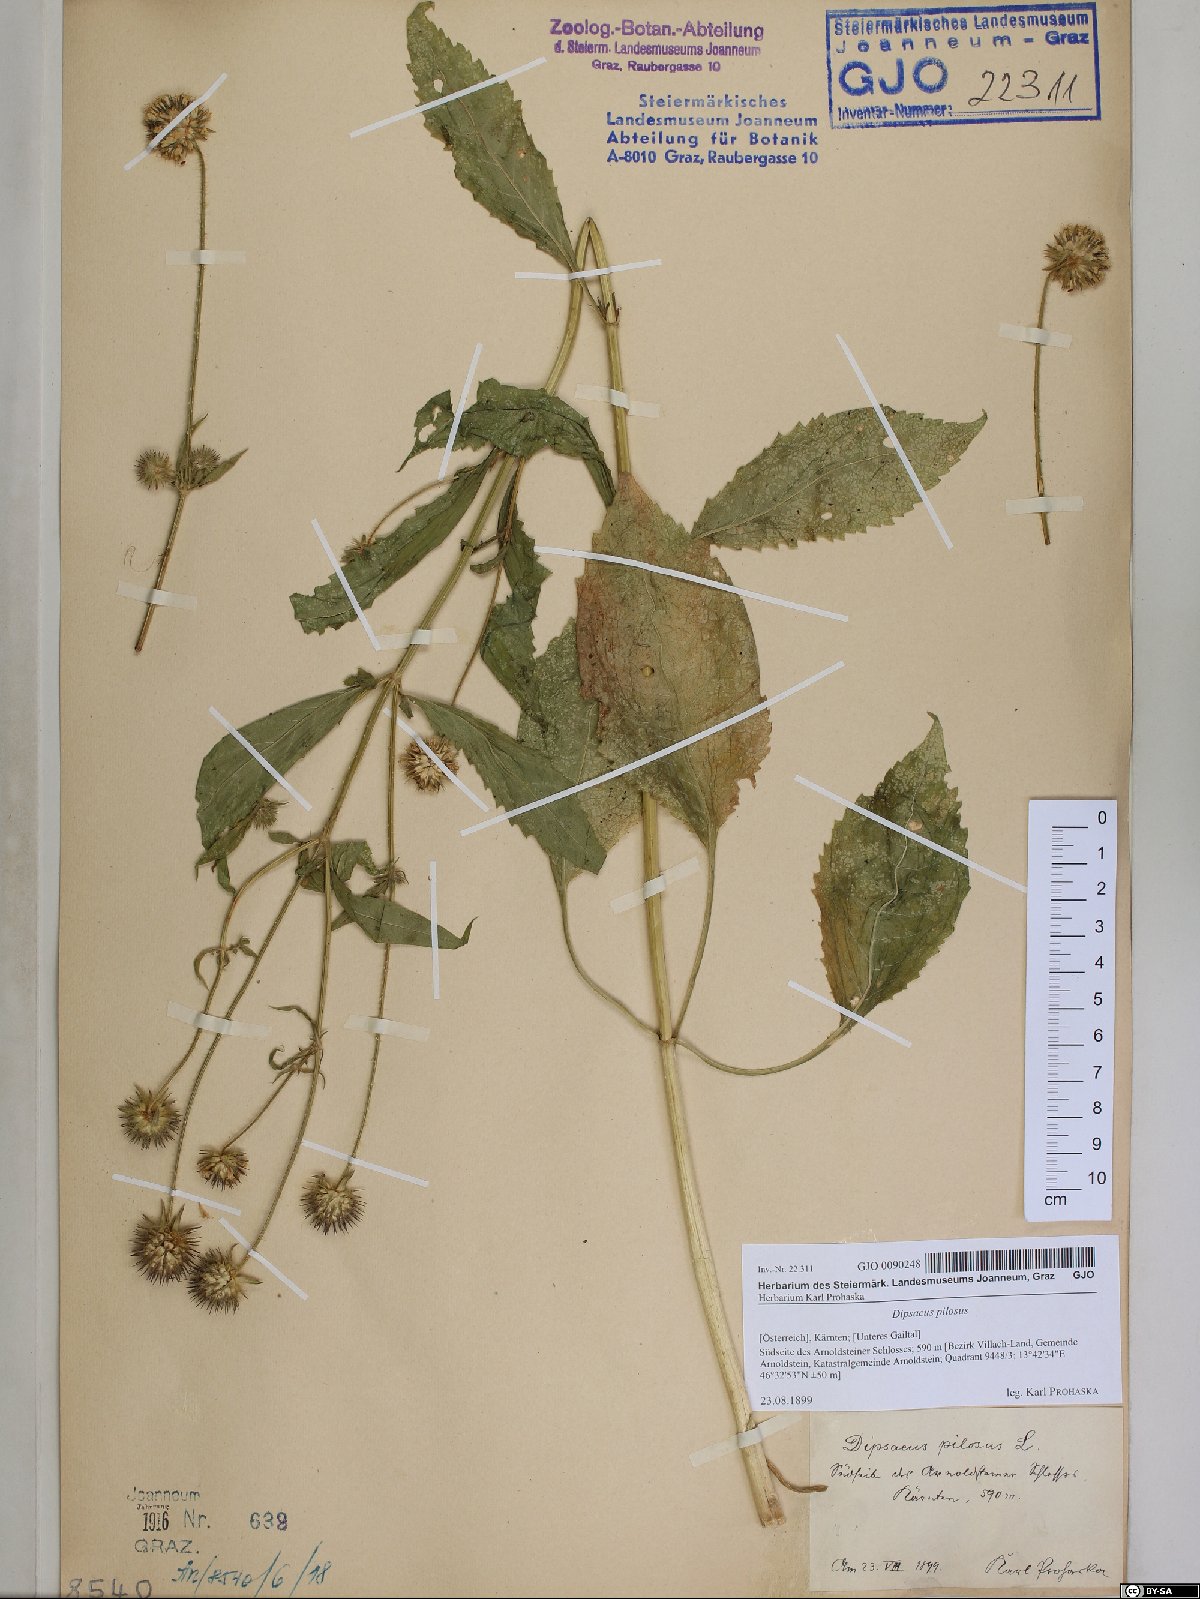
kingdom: Plantae
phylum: Tracheophyta
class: Magnoliopsida
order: Dipsacales
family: Caprifoliaceae
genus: Dipsacus
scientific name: Dipsacus pilosus
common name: Small teasel
